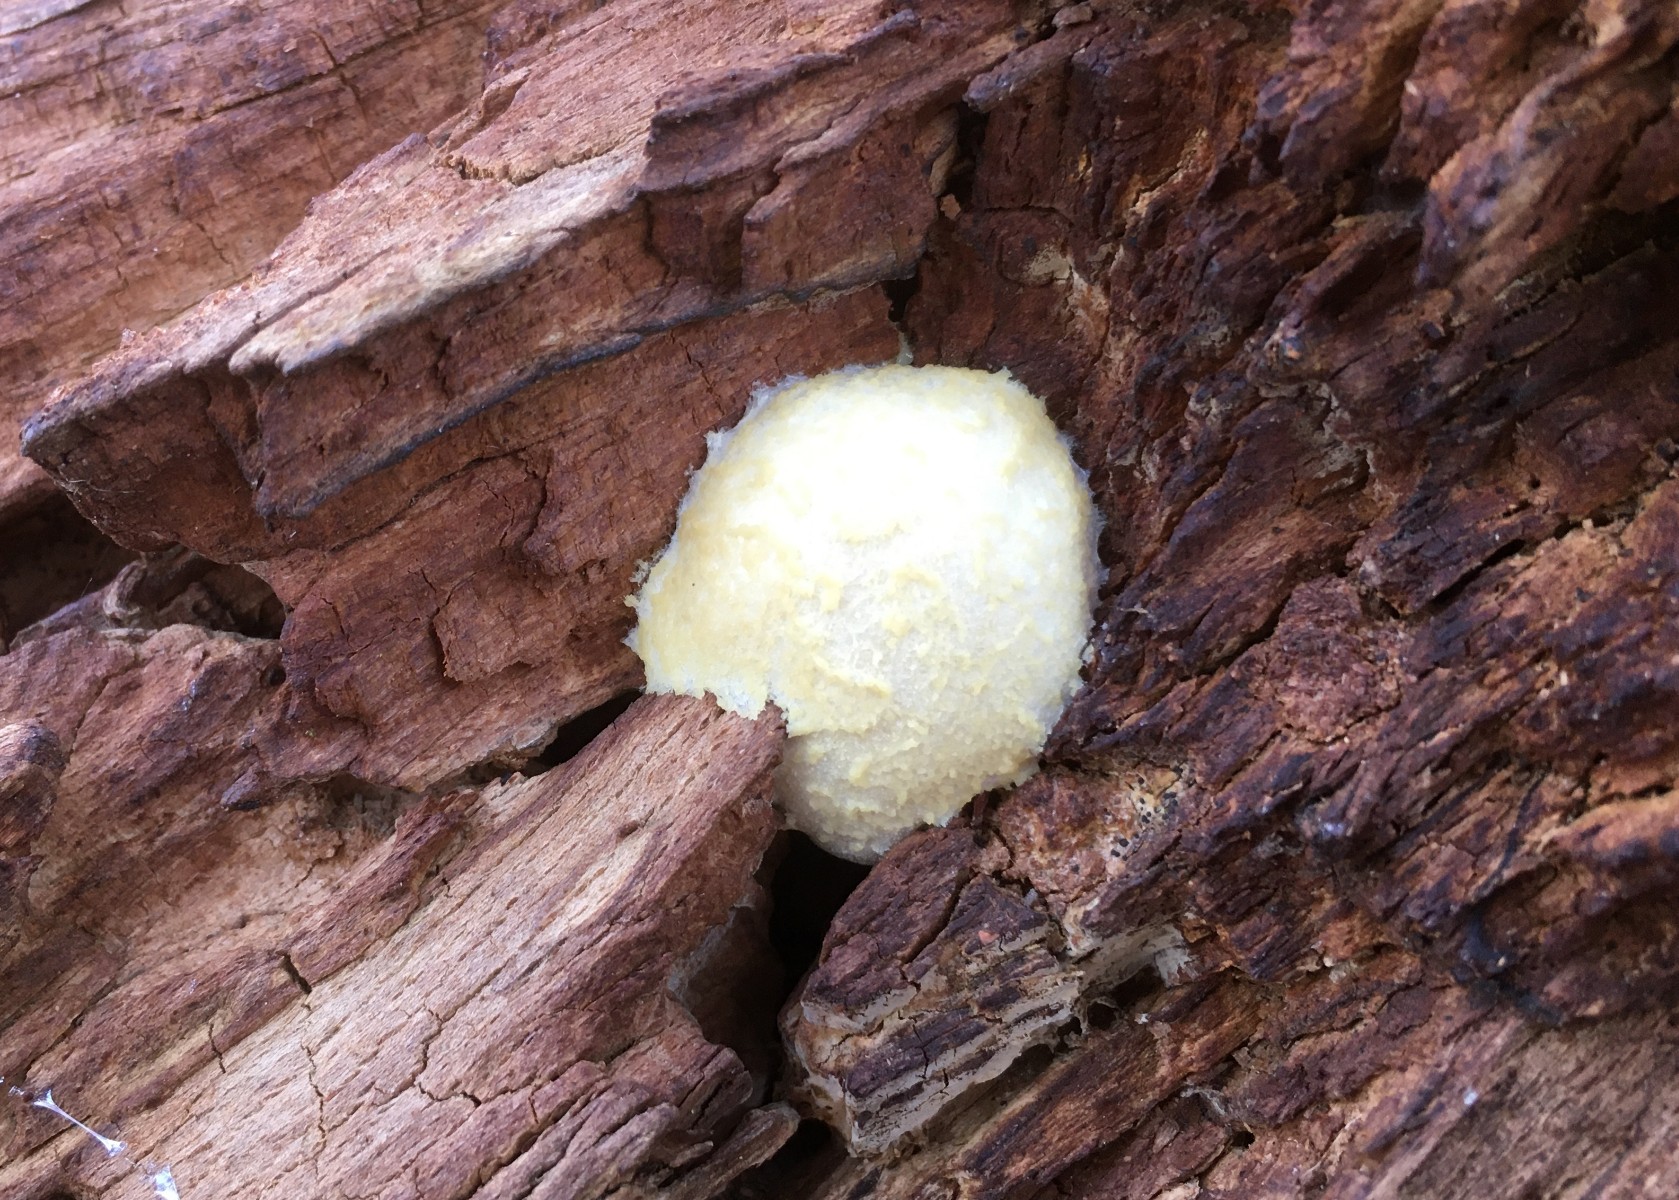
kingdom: Protozoa
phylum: Mycetozoa
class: Myxomycetes
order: Cribrariales
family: Tubiferaceae
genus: Reticularia
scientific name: Reticularia lycoperdon
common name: skinnende støvpude
